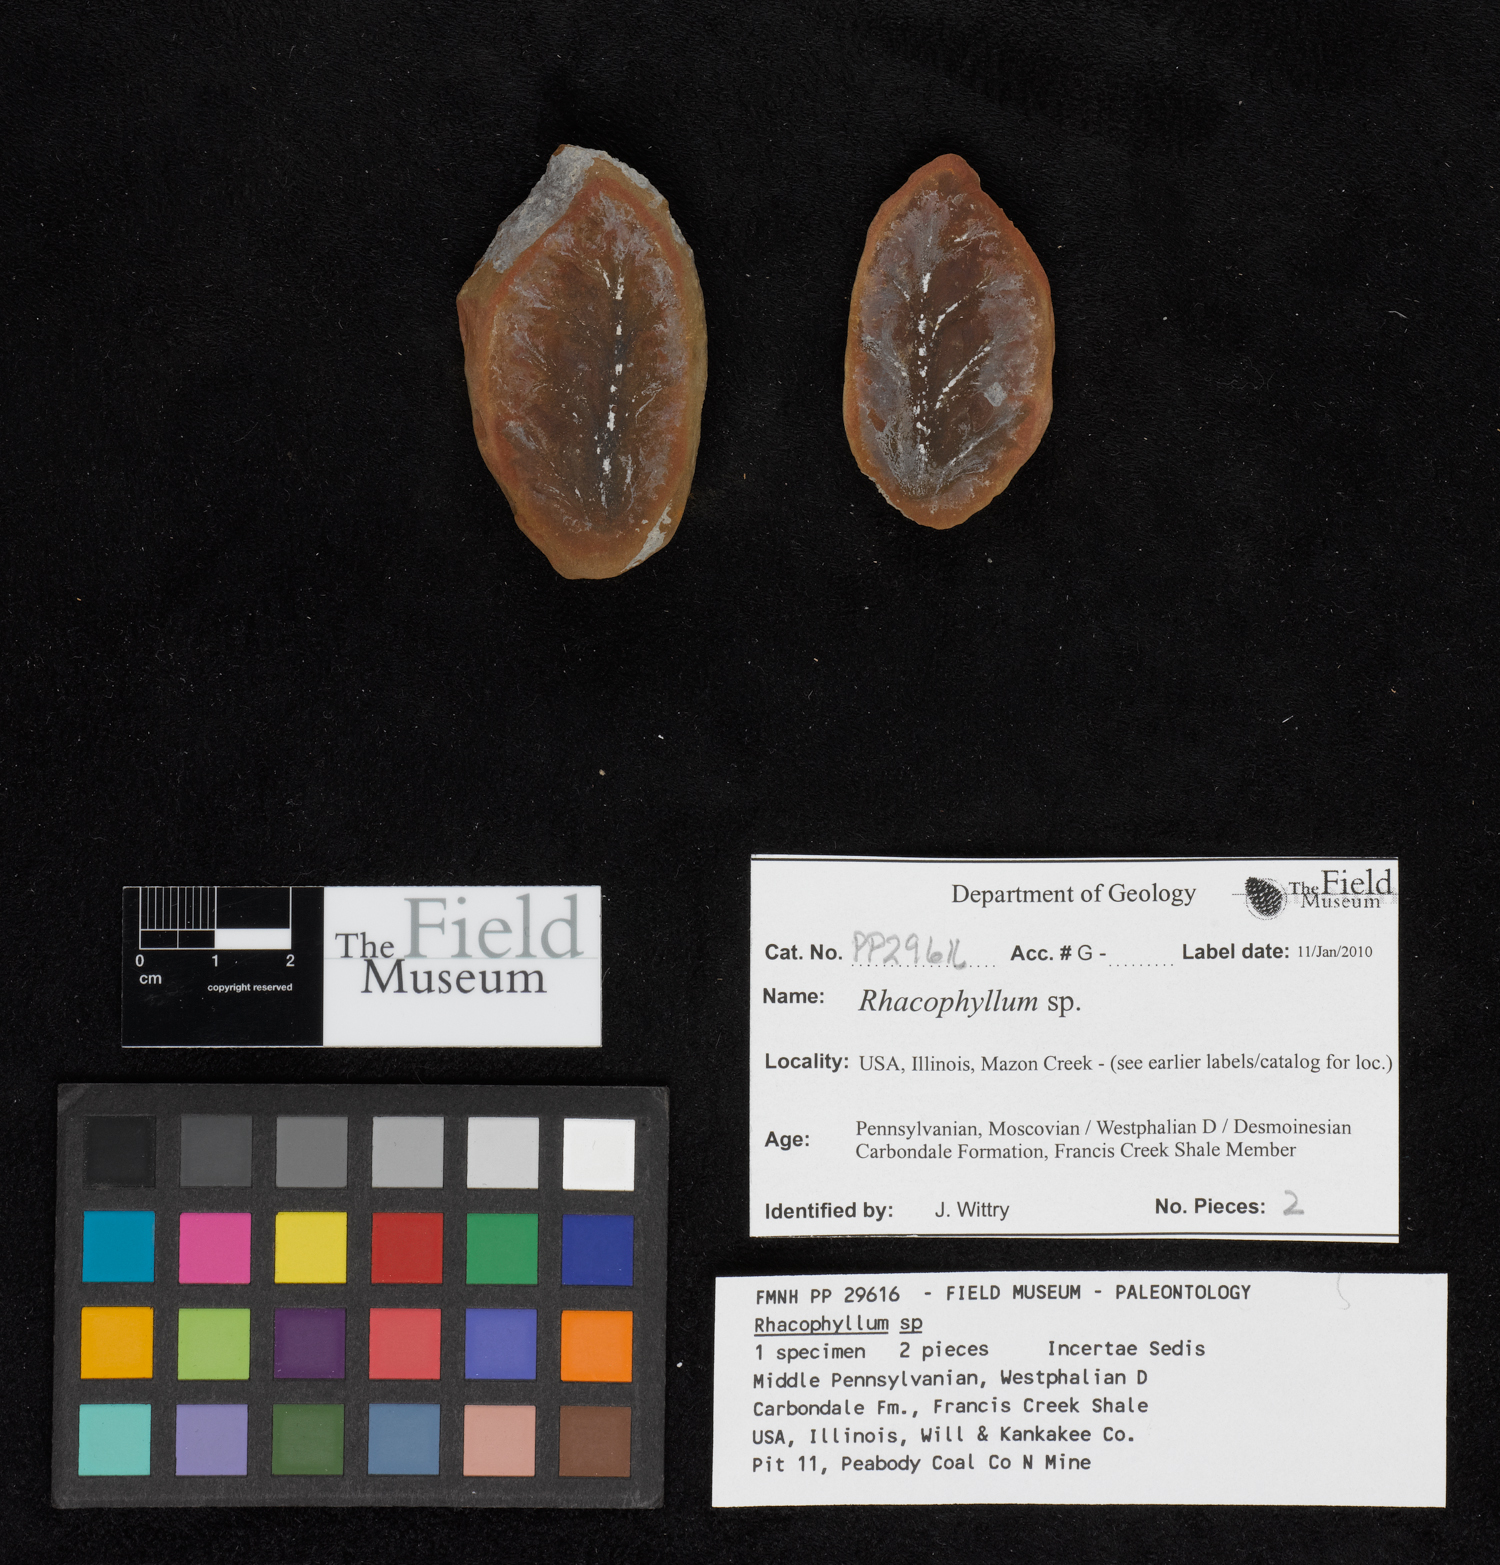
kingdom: Plantae
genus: Rhacophyllum
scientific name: Rhacophyllum
